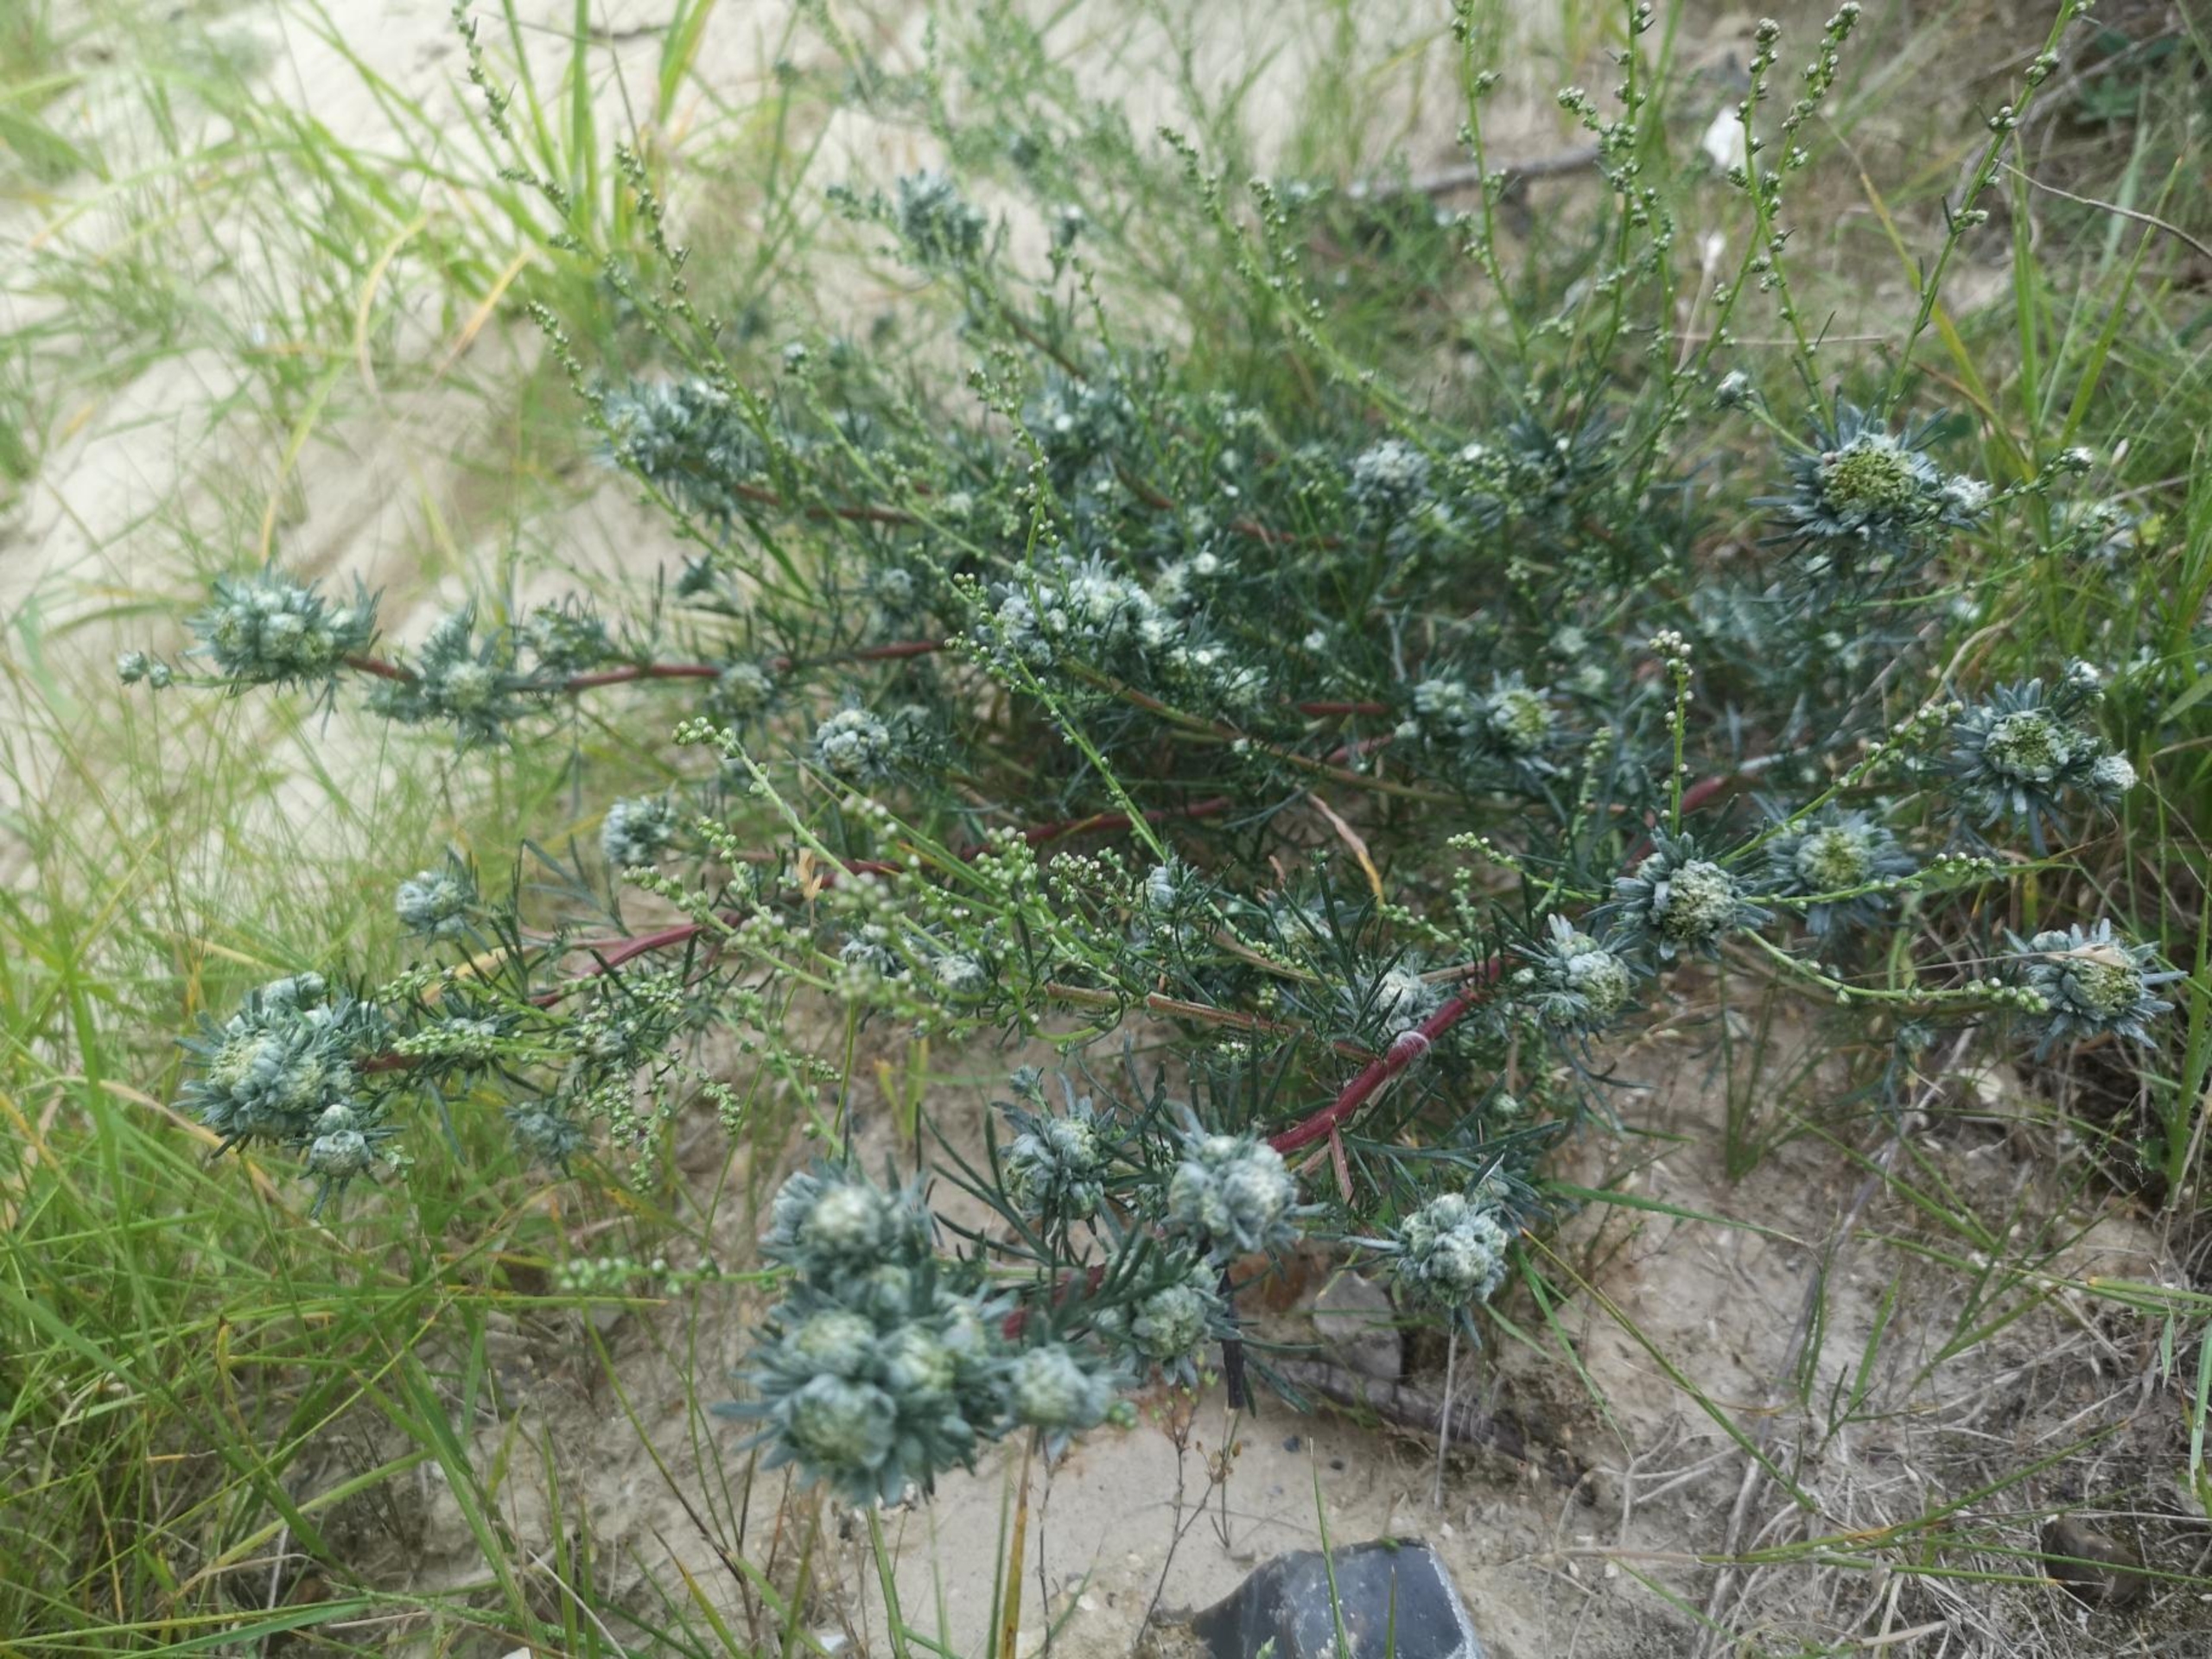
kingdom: Animalia
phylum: Arthropoda
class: Insecta
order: Diptera
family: Cecidomyiidae
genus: Rhopalomyia
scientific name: Rhopalomyia artemisiae
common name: Bynkekuglegalmyg
